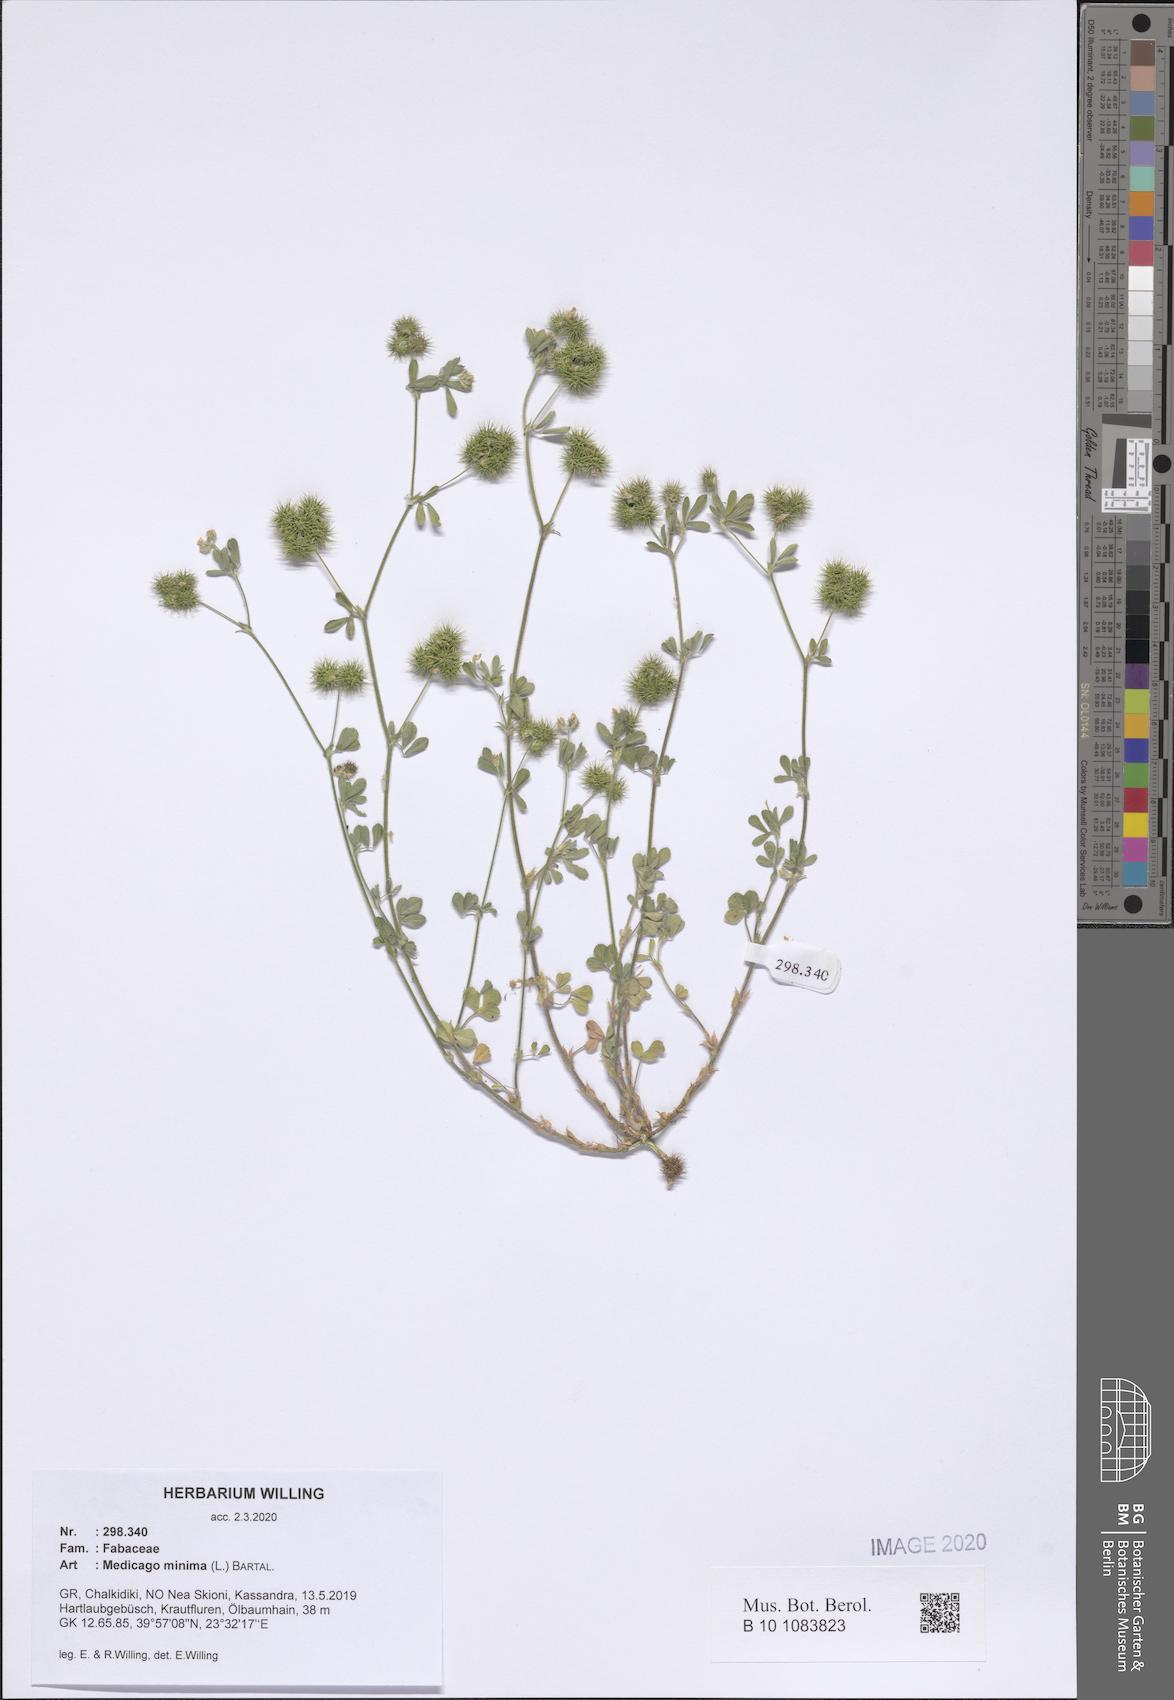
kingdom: Plantae
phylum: Tracheophyta
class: Magnoliopsida
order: Fabales
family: Fabaceae
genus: Medicago
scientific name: Medicago minima
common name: Little bur-clover
